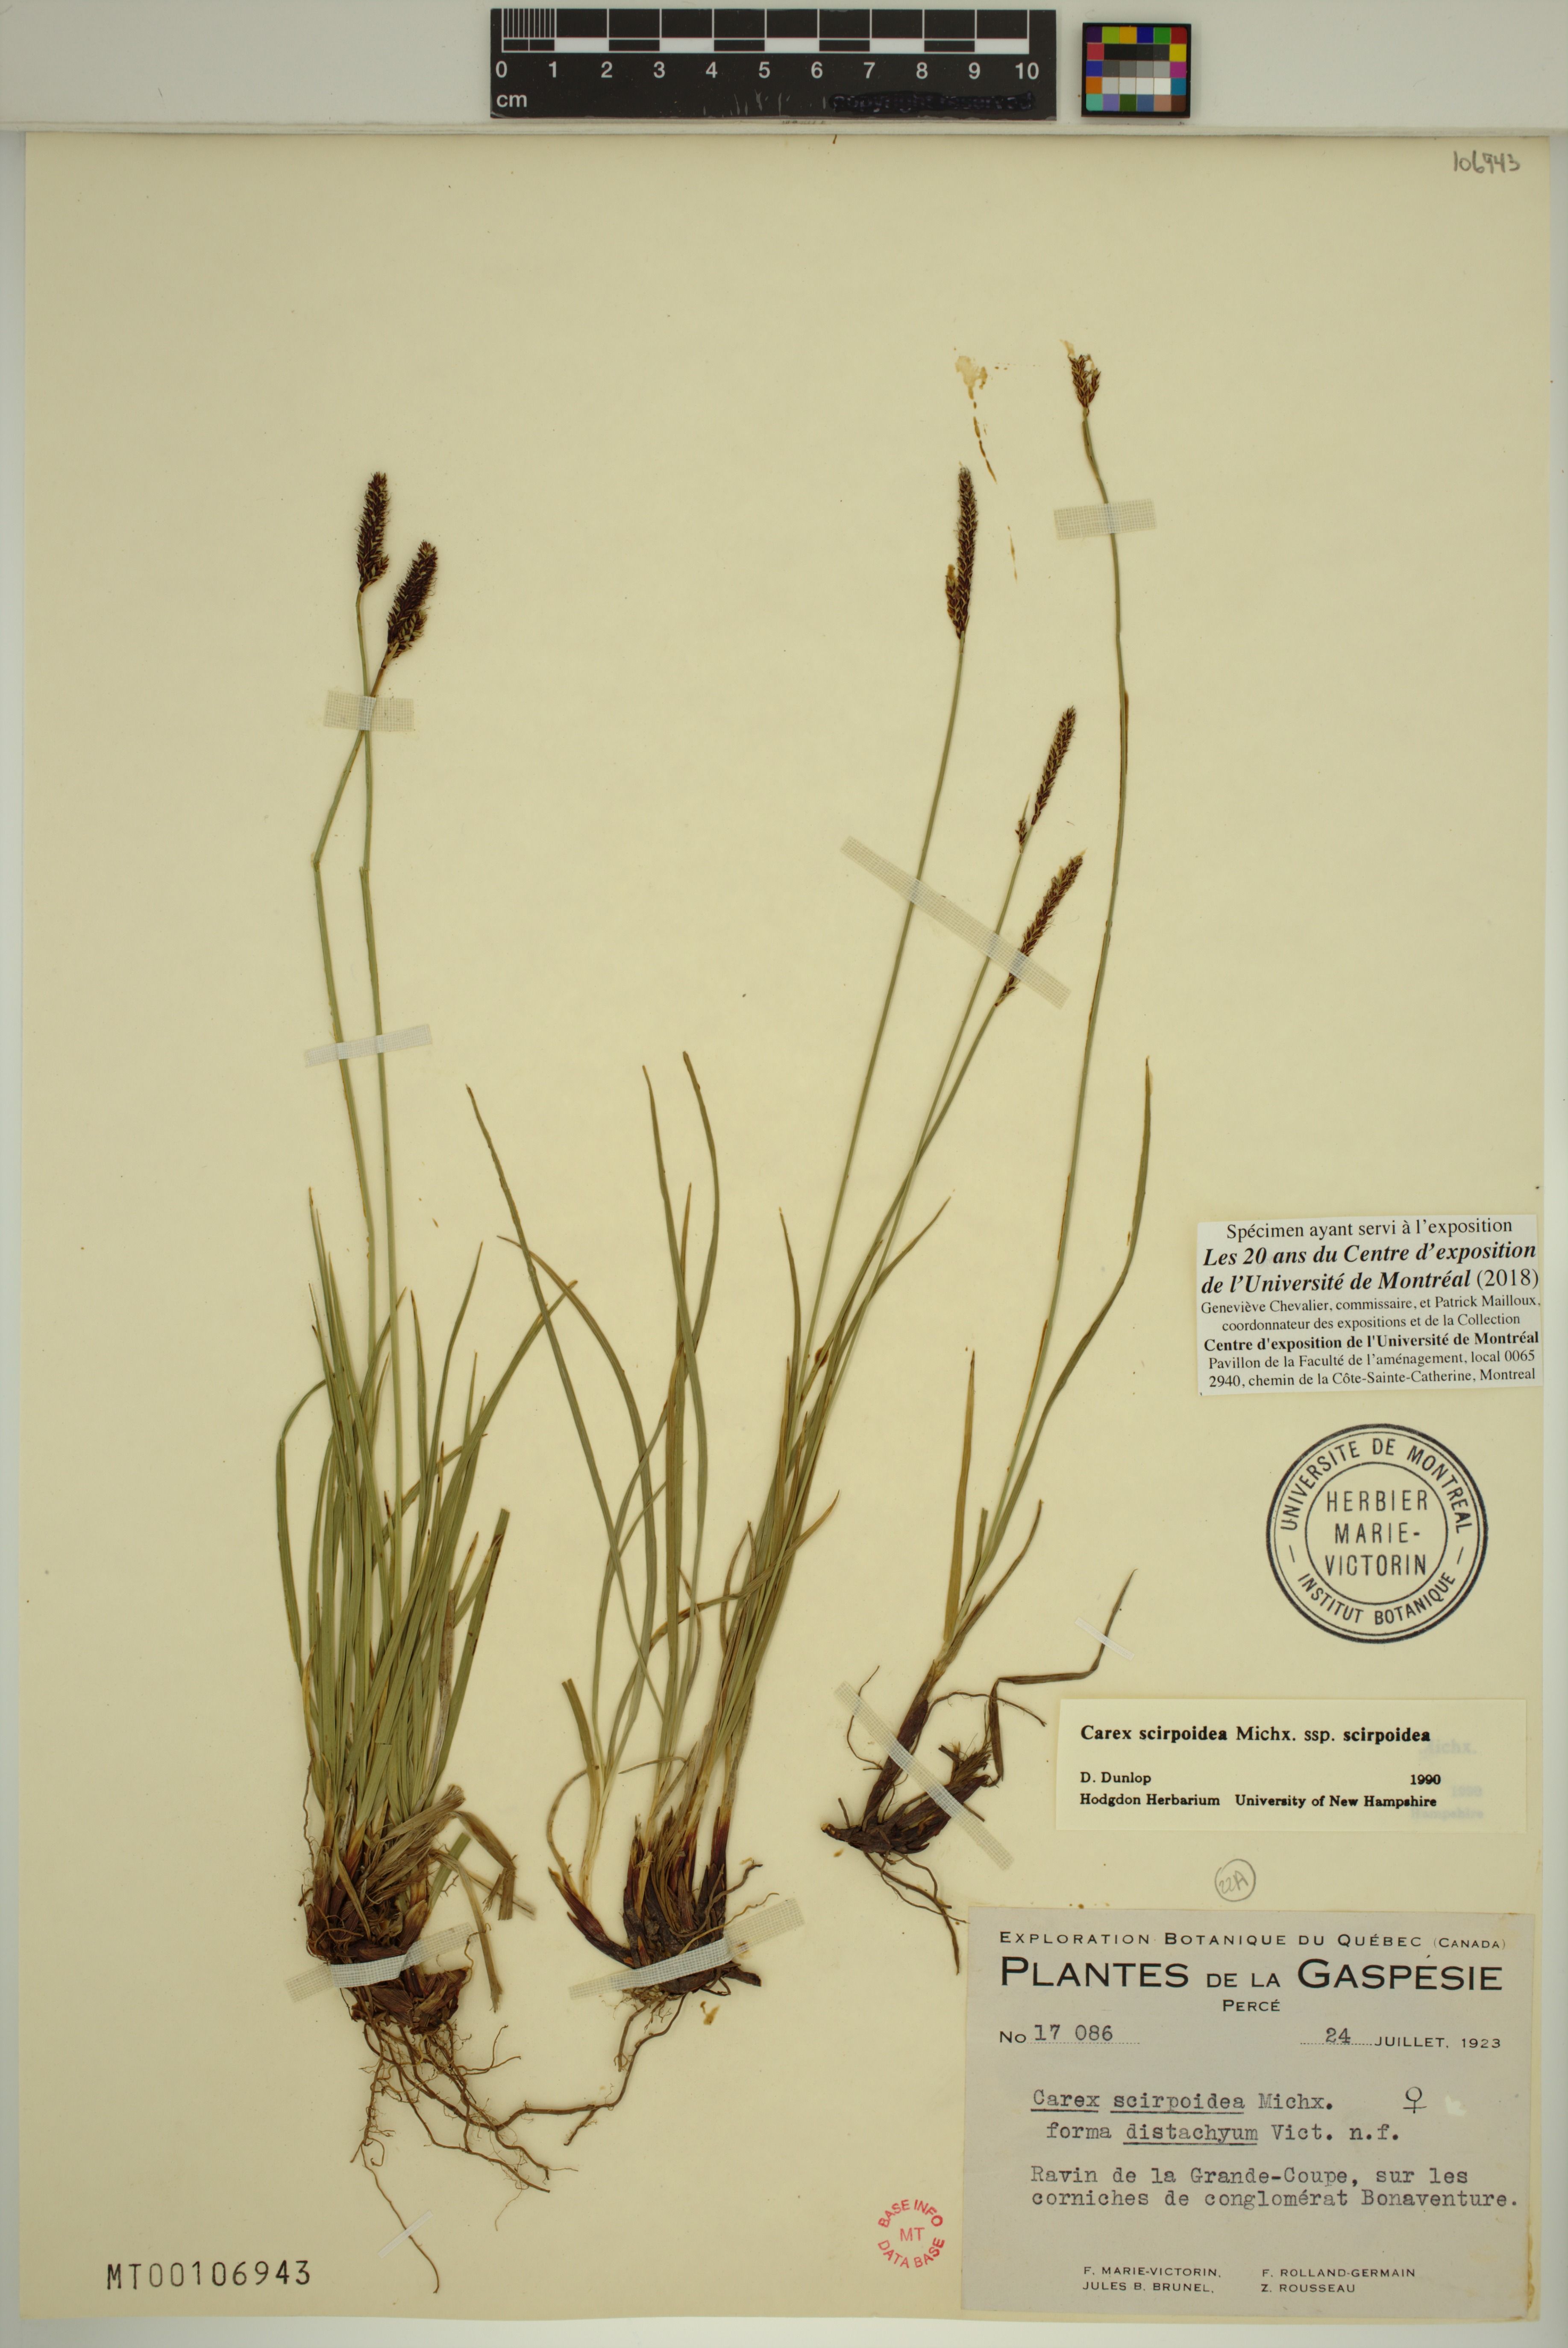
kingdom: Plantae
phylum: Tracheophyta
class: Liliopsida
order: Poales
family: Cyperaceae
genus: Carex
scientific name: Carex scirpoidea
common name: Canada single-spike sedge
